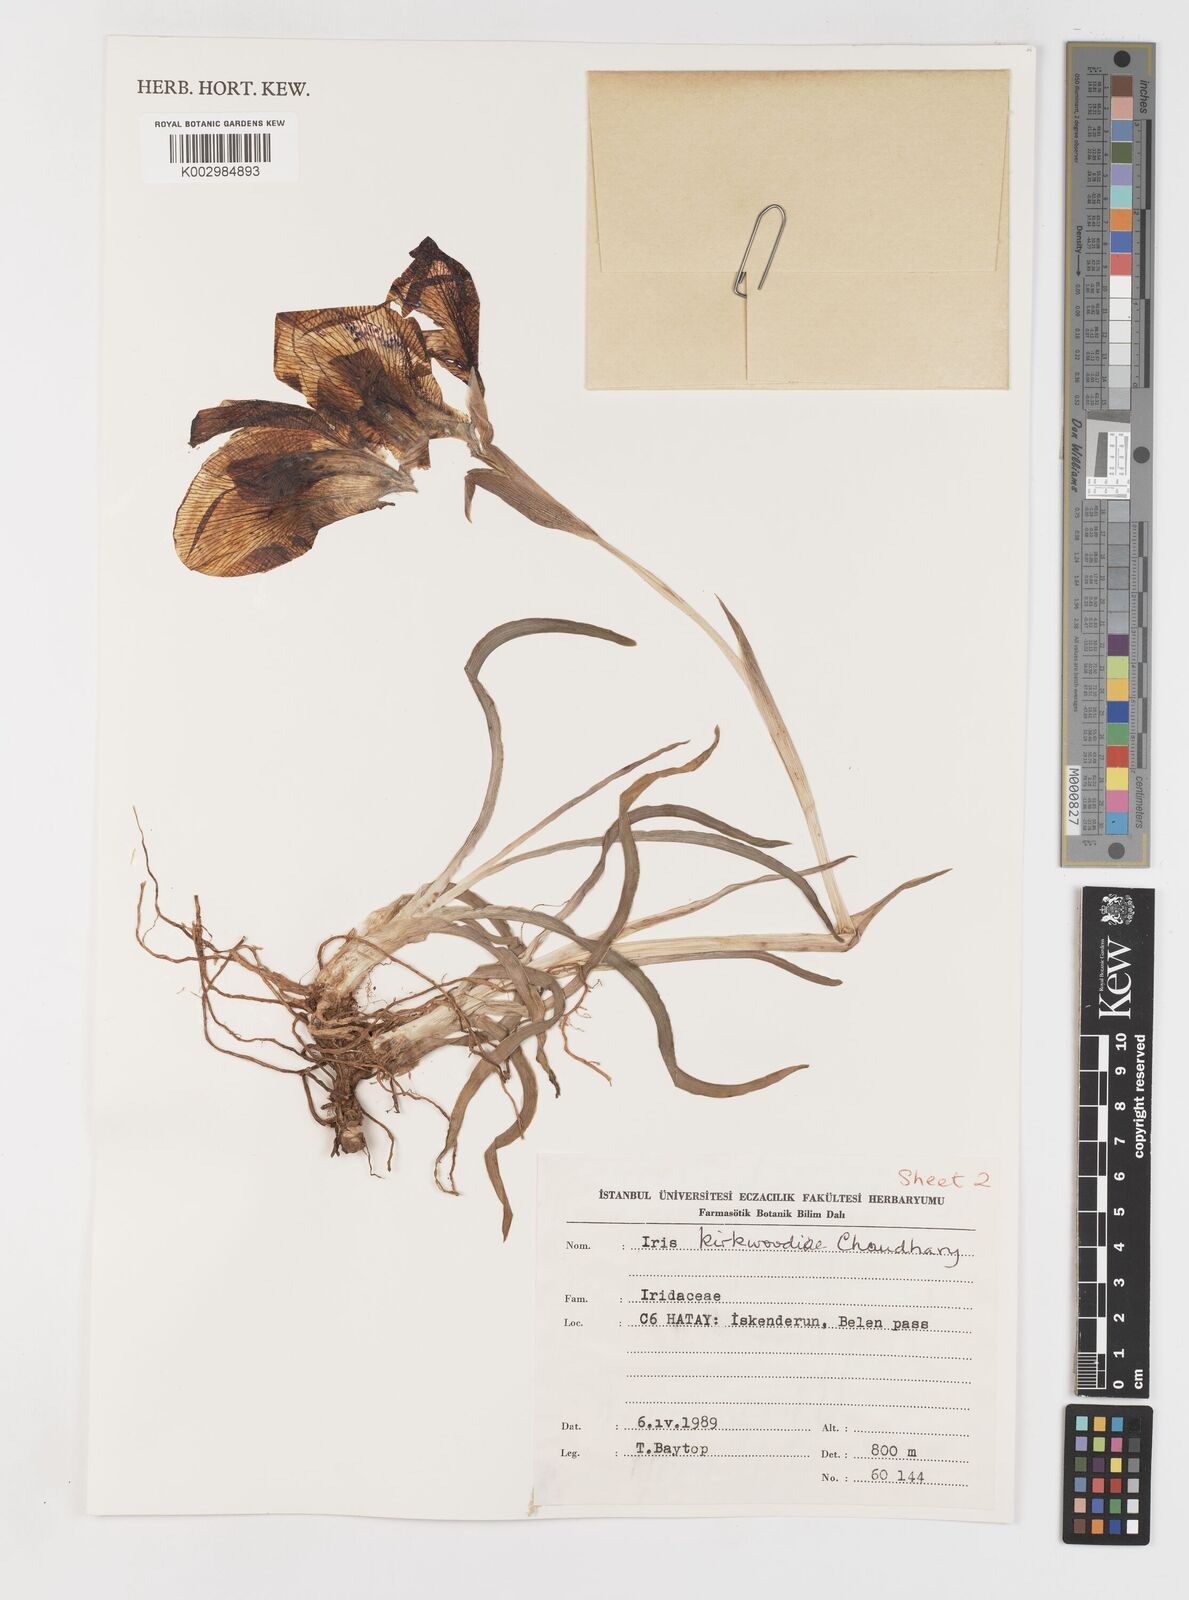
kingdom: Plantae
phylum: Tracheophyta
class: Liliopsida
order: Asparagales
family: Iridaceae
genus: Iris
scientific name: Iris kirkwoodiae
